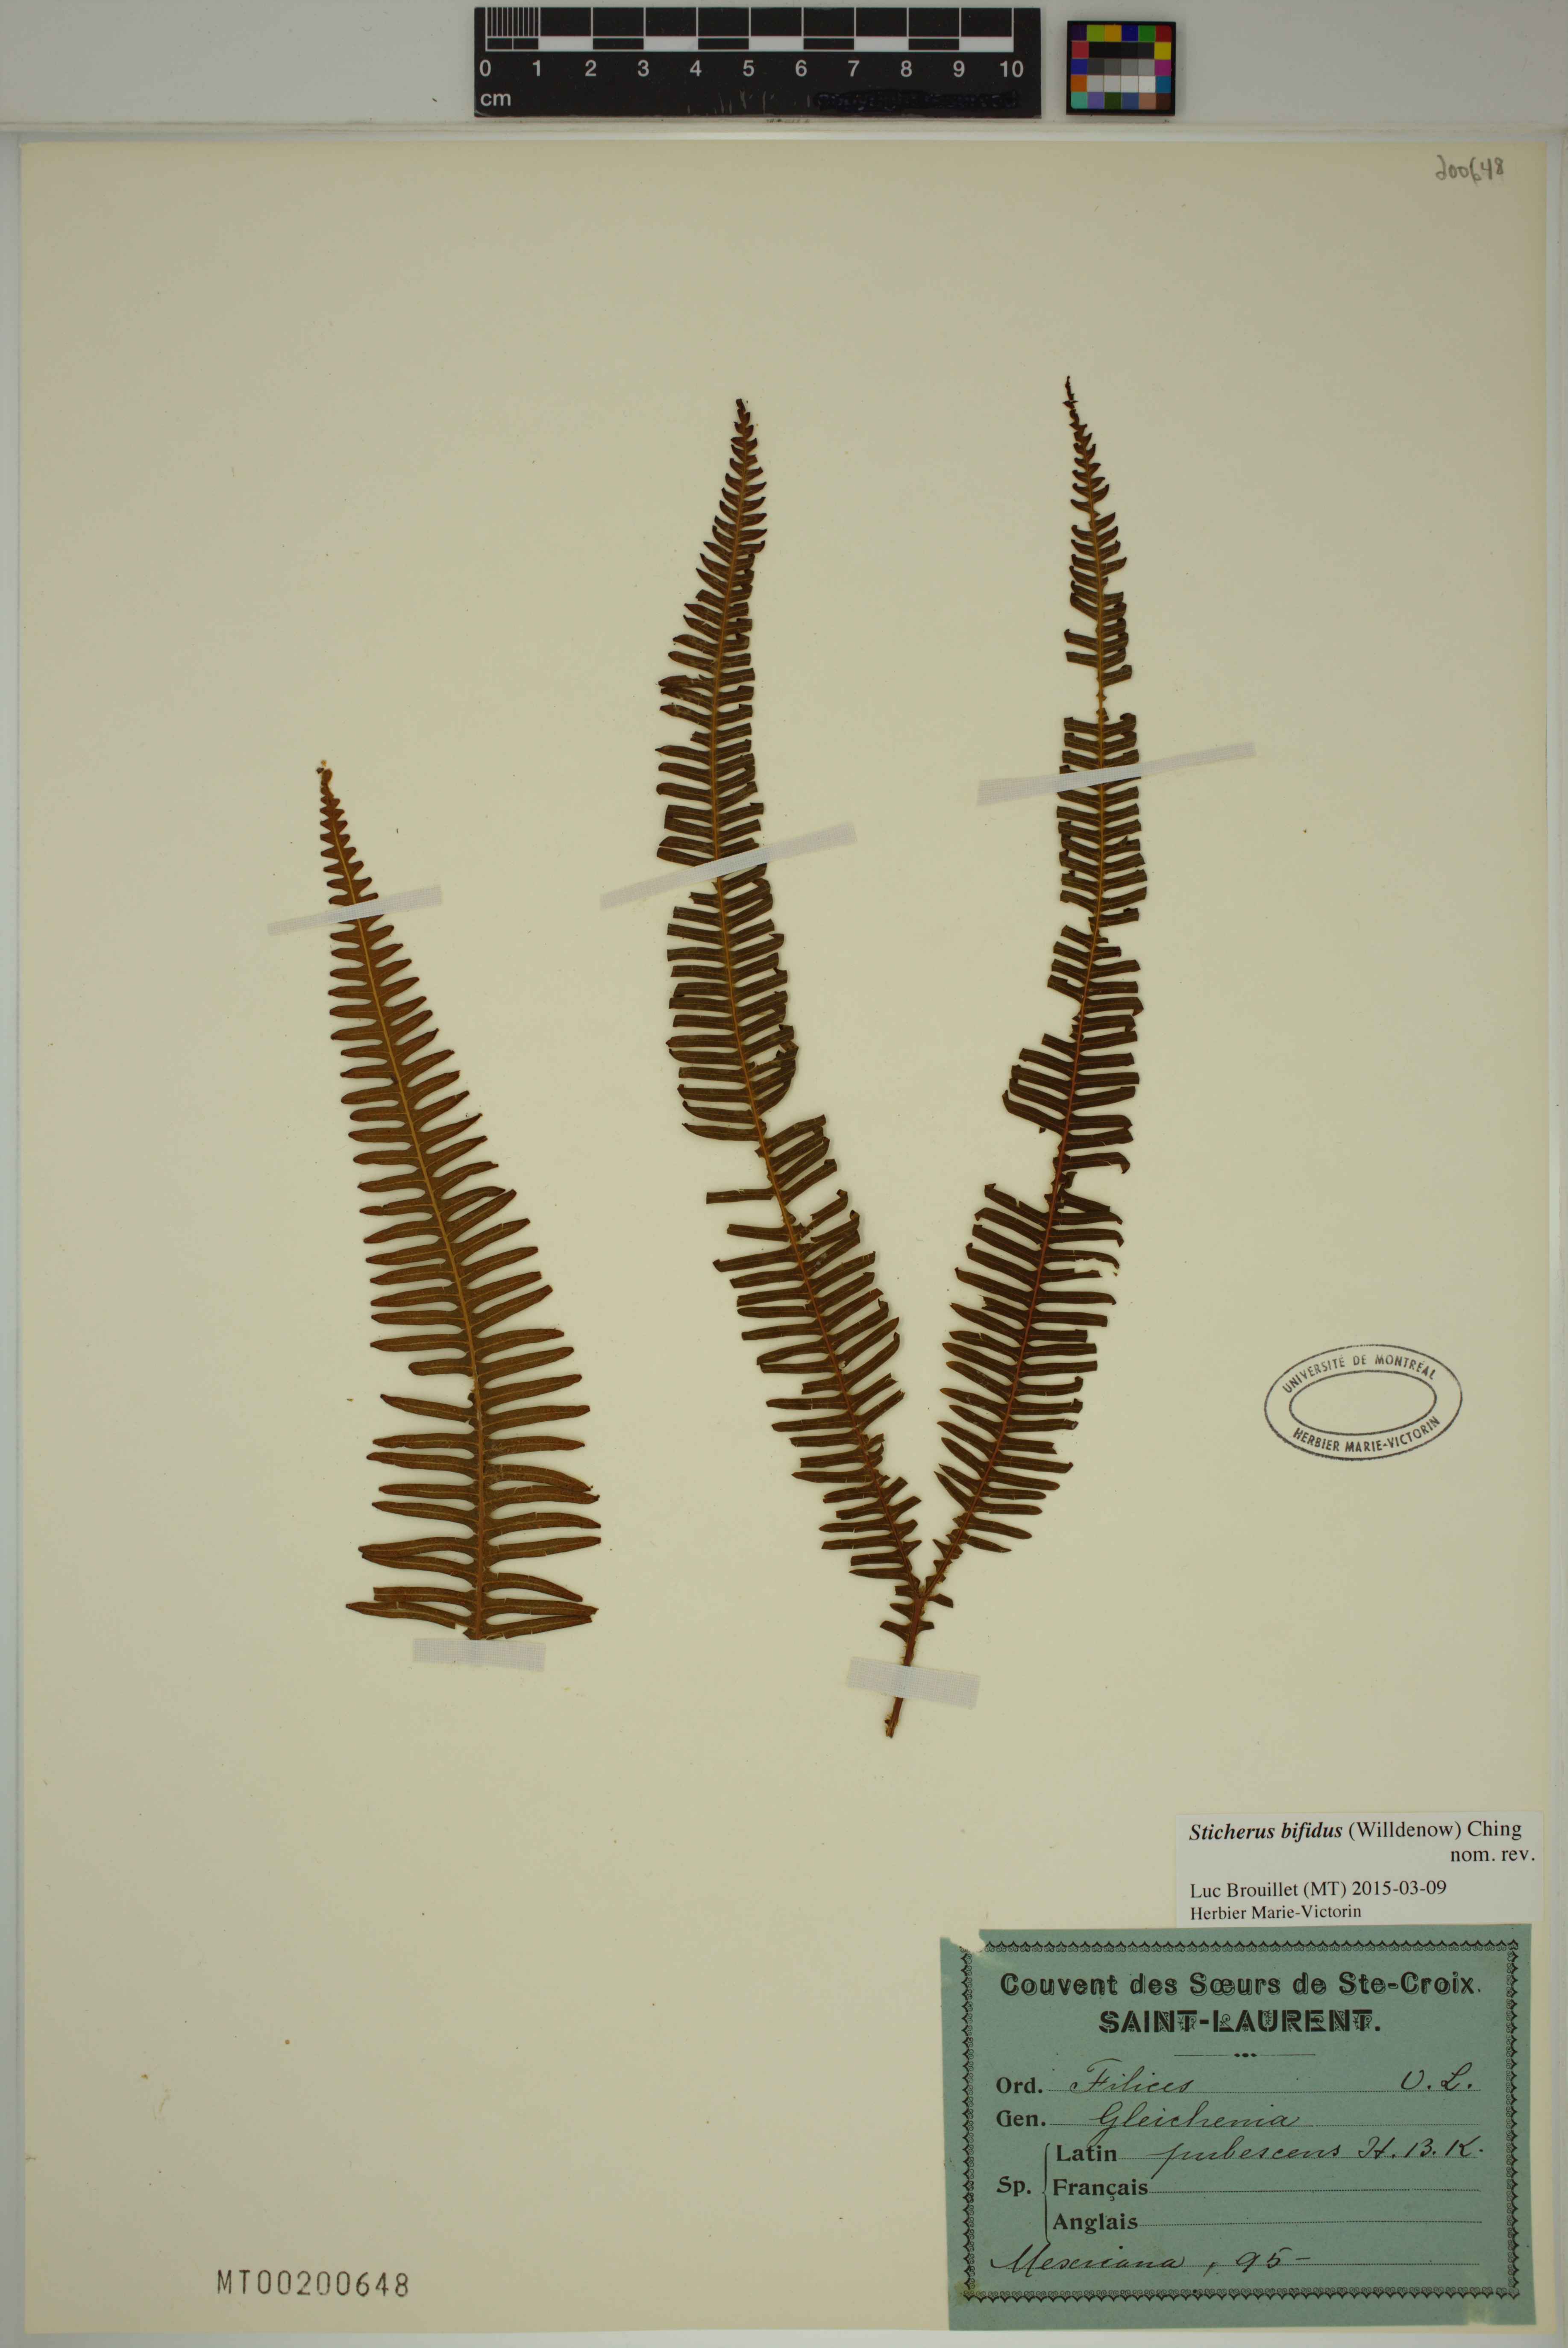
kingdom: Plantae
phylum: Tracheophyta
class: Polypodiopsida
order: Gleicheniales
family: Gleicheniaceae
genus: Sticherus
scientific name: Sticherus bifidus
